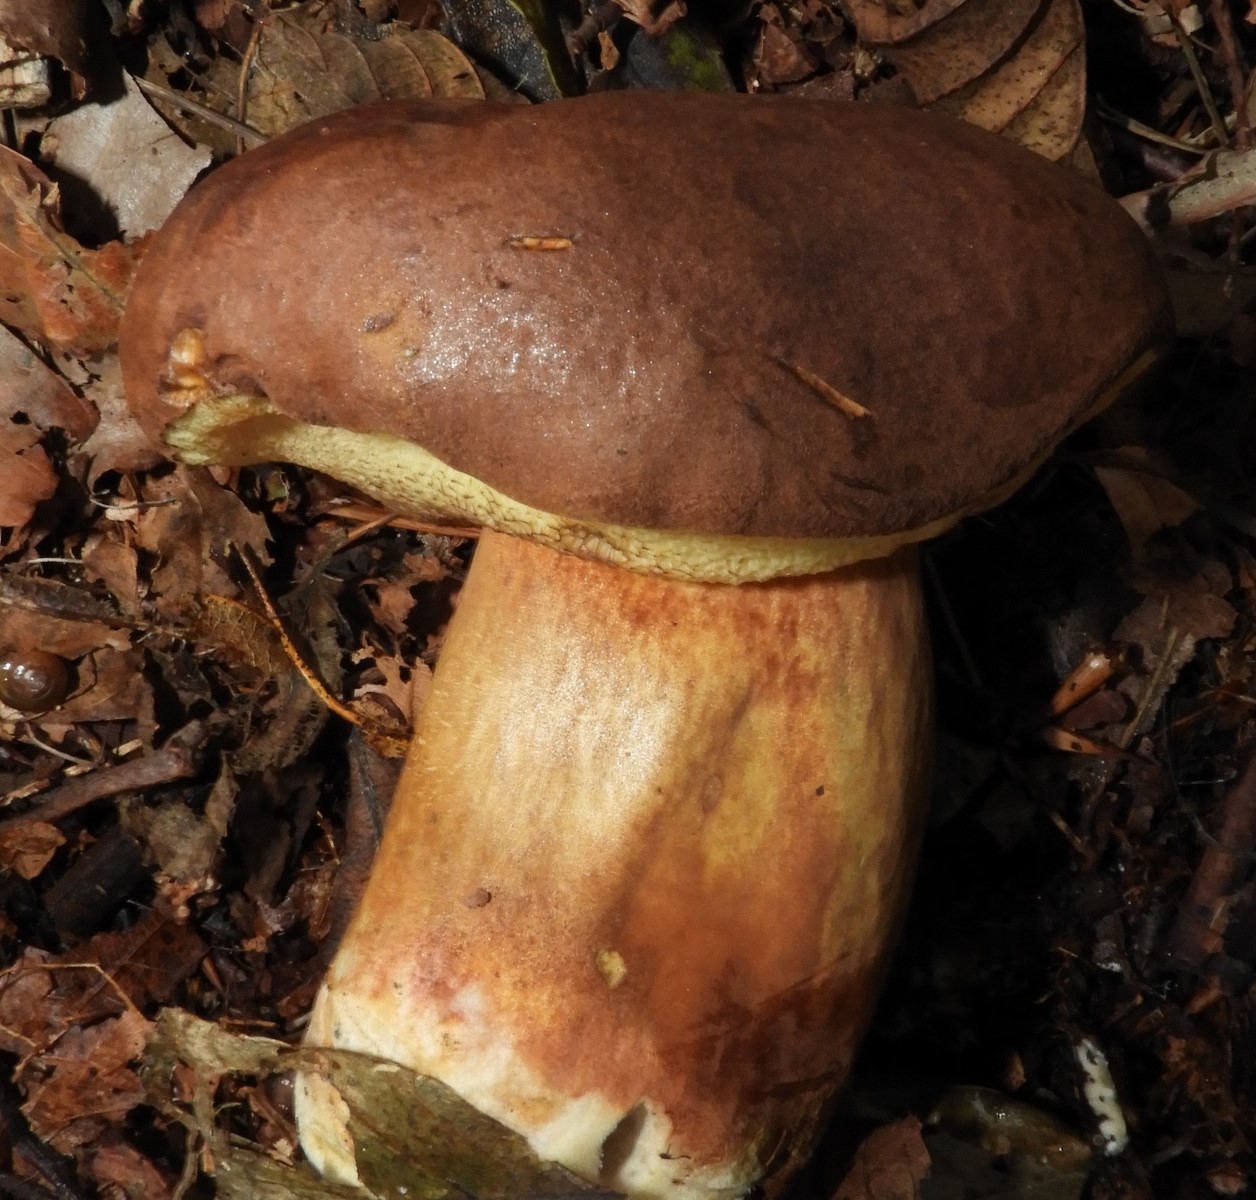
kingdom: Fungi
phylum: Basidiomycota
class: Agaricomycetes
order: Boletales
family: Boletaceae
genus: Imleria
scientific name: Imleria badia
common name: brunstokket rørhat
